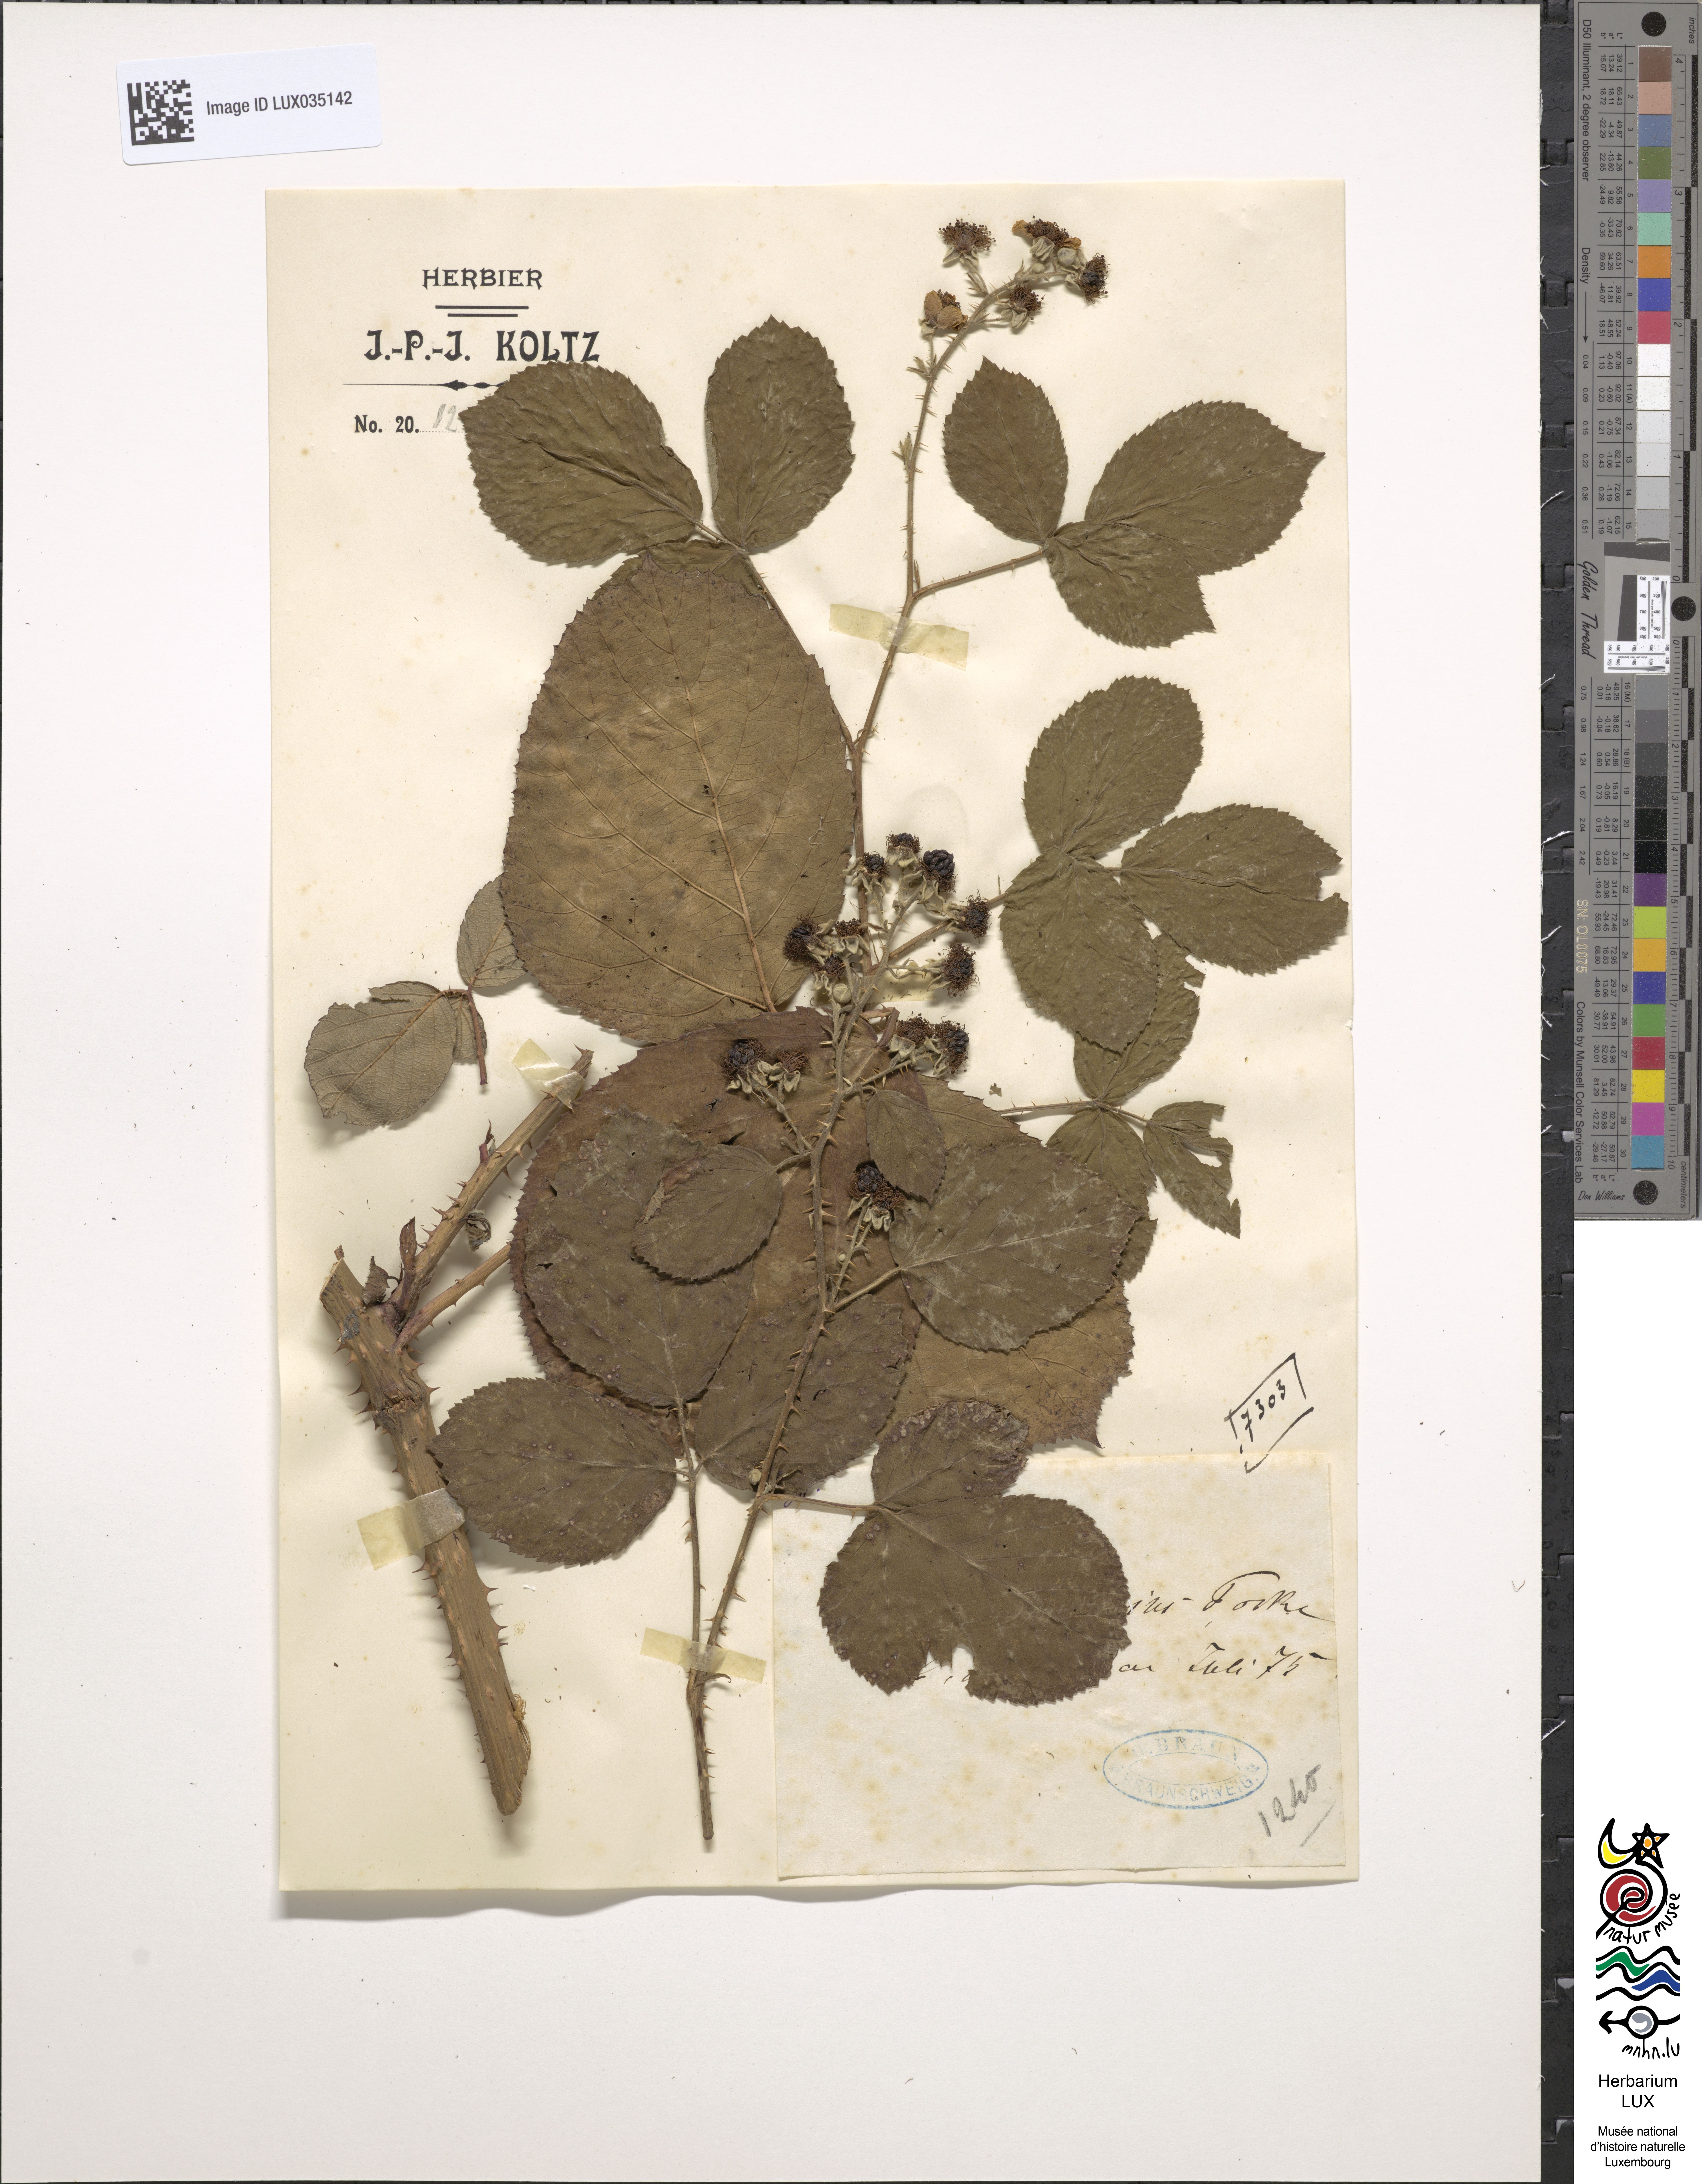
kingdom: Plantae
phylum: Tracheophyta
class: Magnoliopsida
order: Rosales
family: Rosaceae
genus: Rubus
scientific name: Rubus egregius
